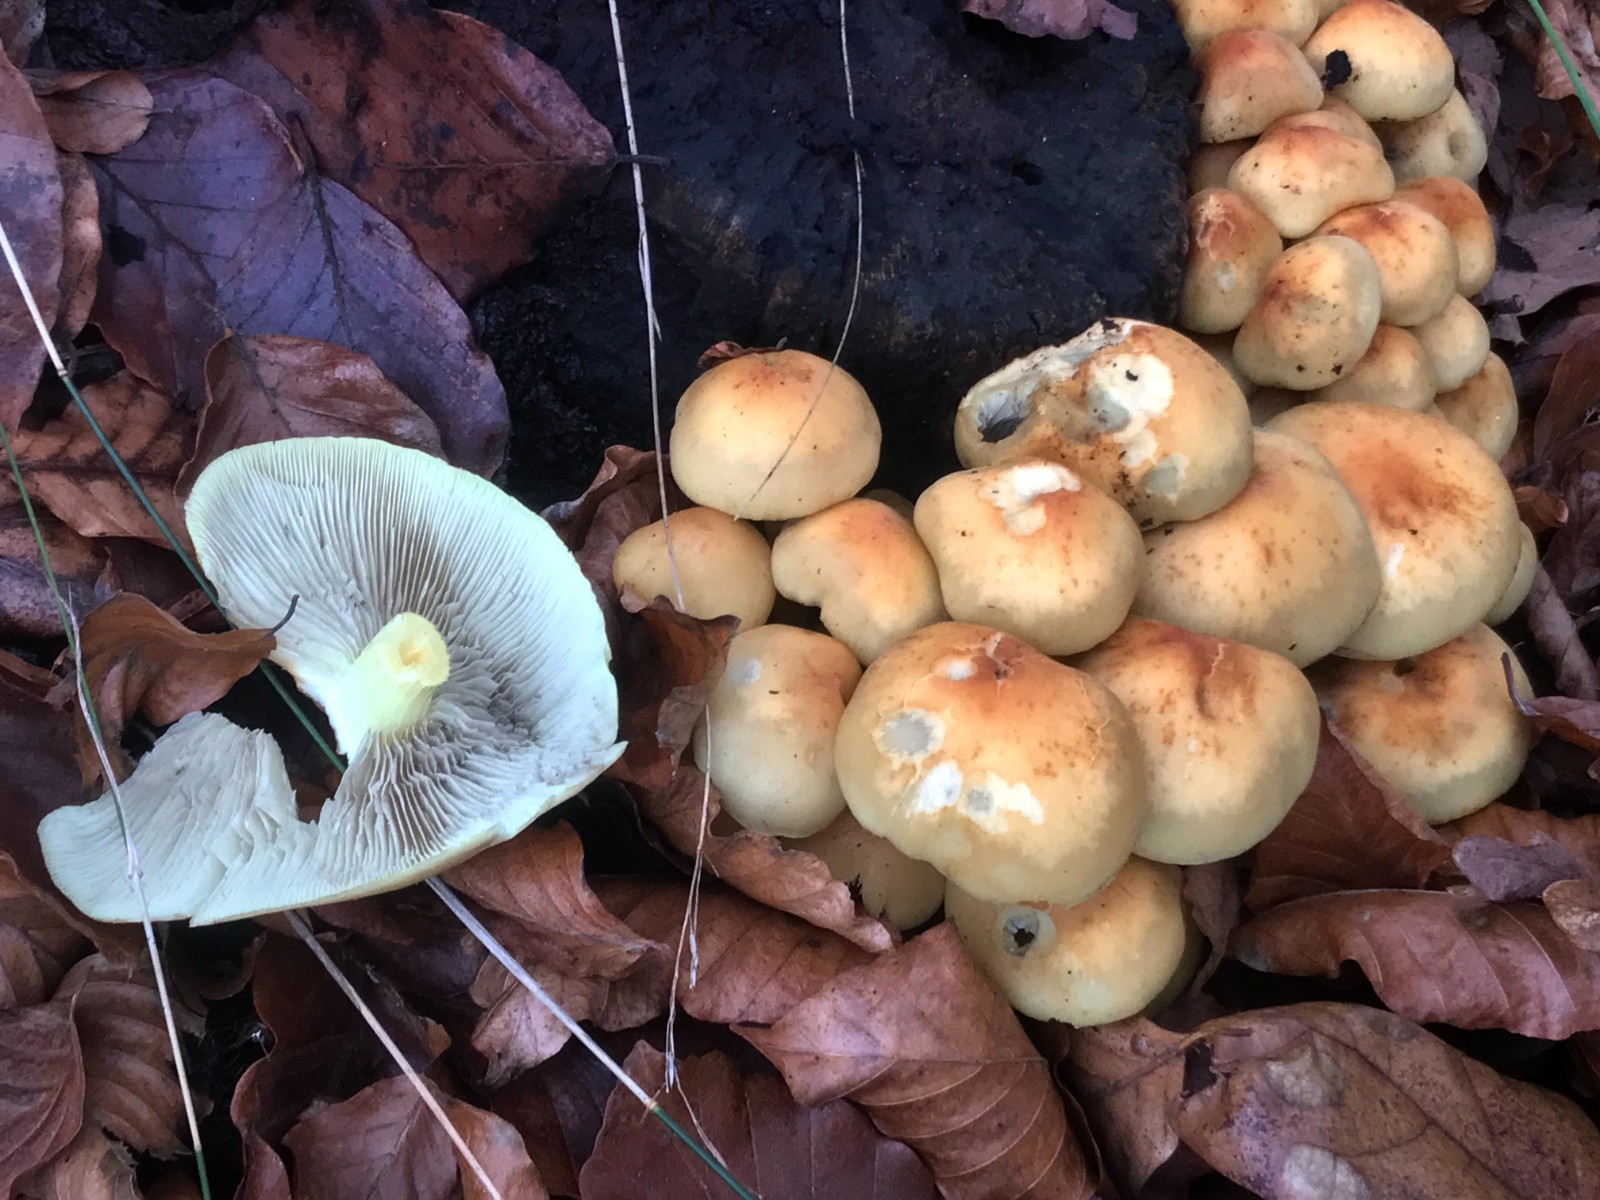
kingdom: Fungi
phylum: Basidiomycota
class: Agaricomycetes
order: Agaricales
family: Strophariaceae
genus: Hypholoma
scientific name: Hypholoma fasciculare
